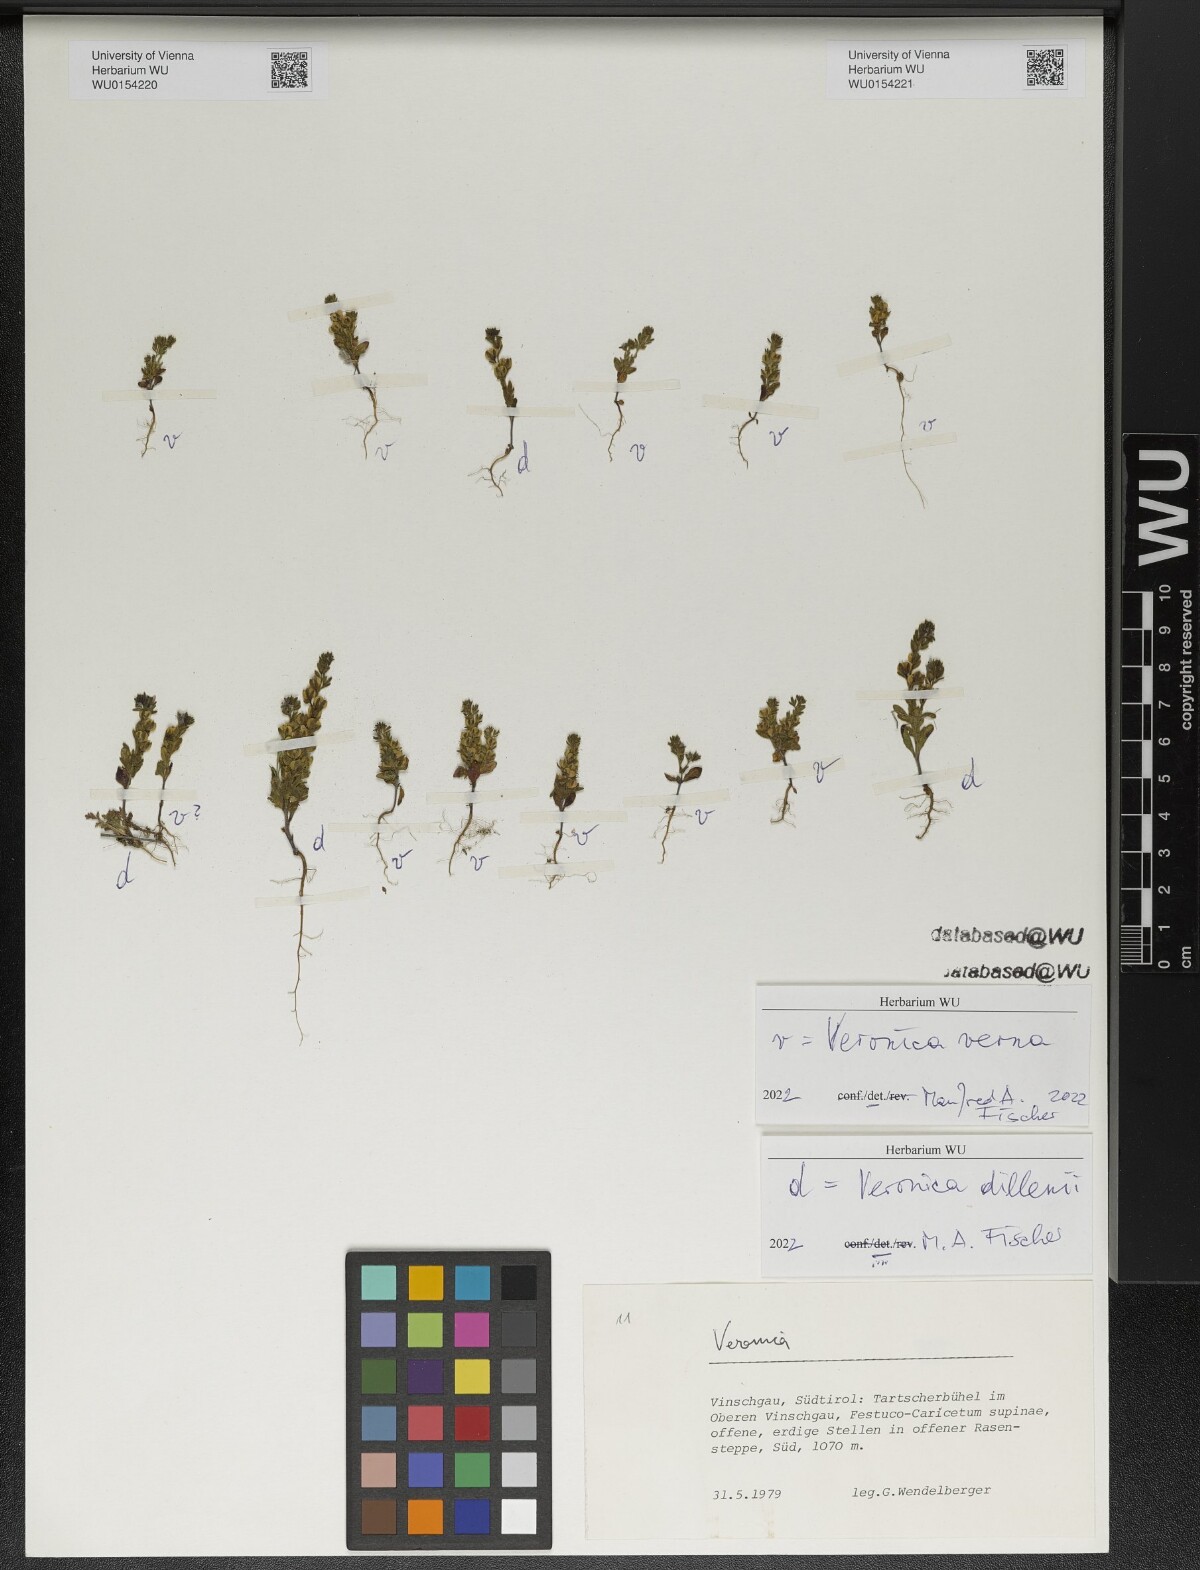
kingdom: Plantae
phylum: Tracheophyta
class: Magnoliopsida
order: Lamiales
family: Plantaginaceae
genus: Veronica
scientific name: Veronica verna
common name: Spring speedwell
